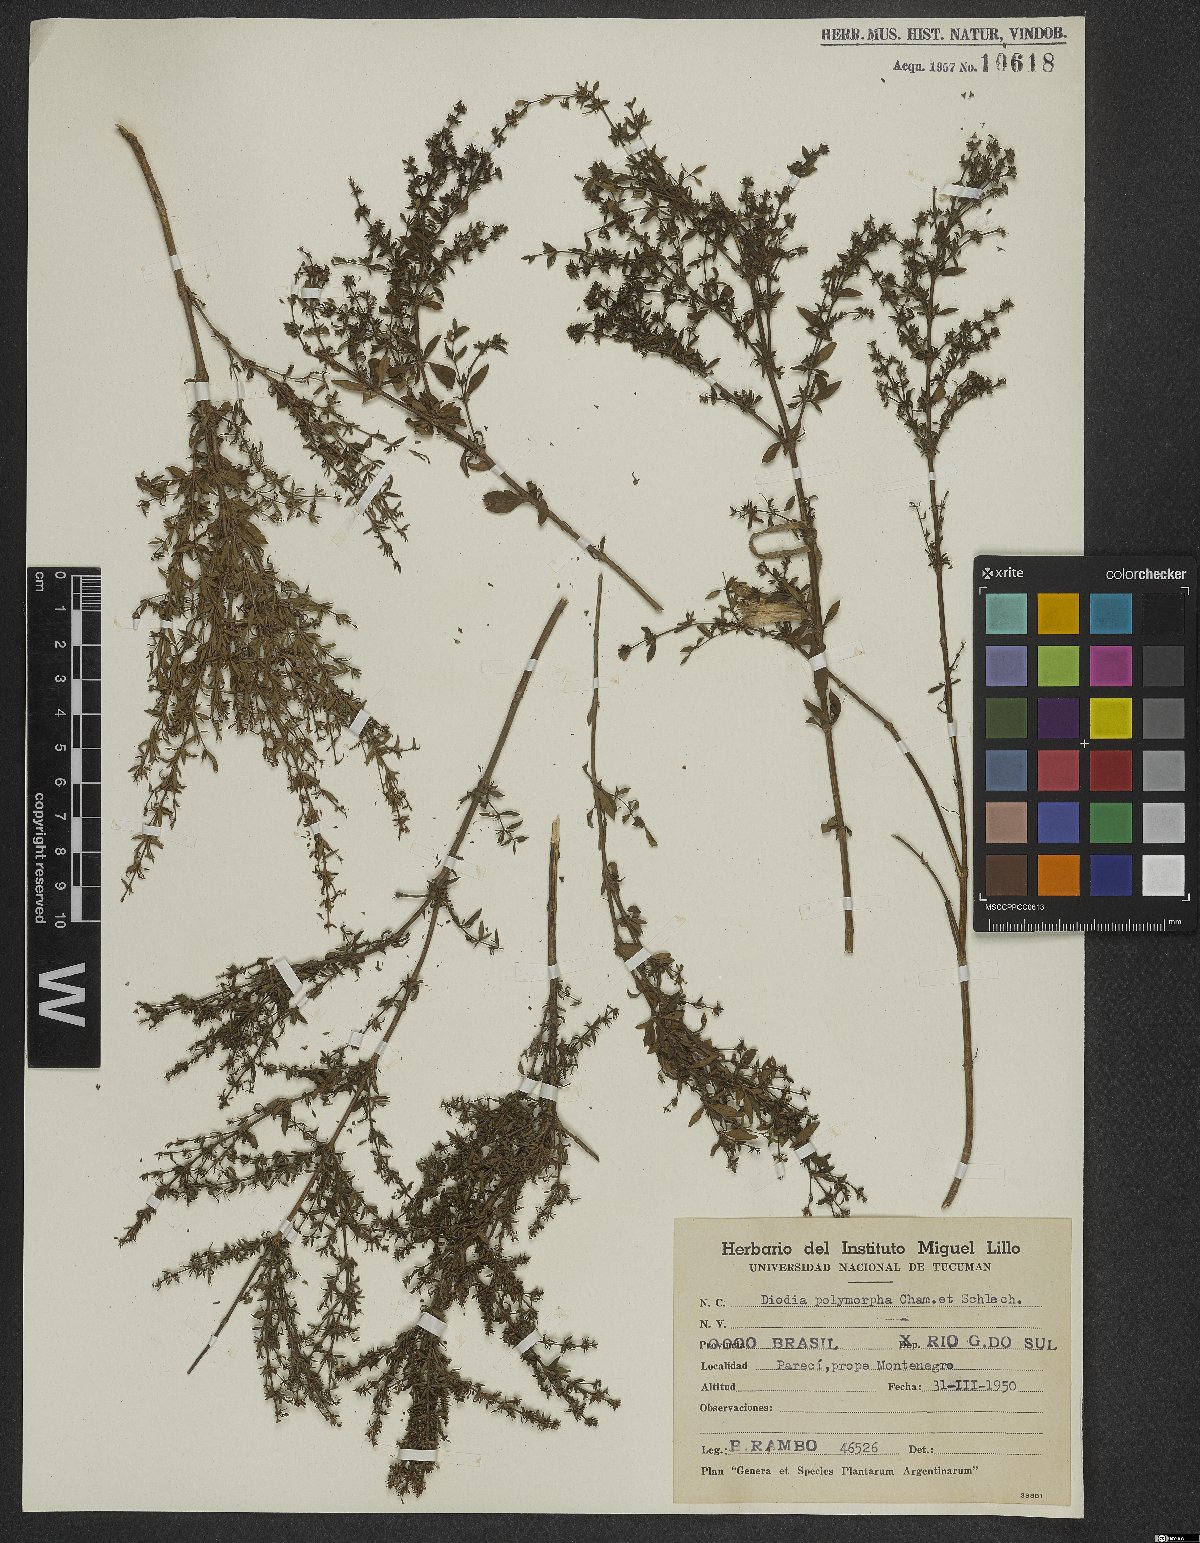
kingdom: Plantae
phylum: Tracheophyta
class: Magnoliopsida
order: Gentianales
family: Rubiaceae
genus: Galianthe
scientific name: Galianthe brasiliensis
